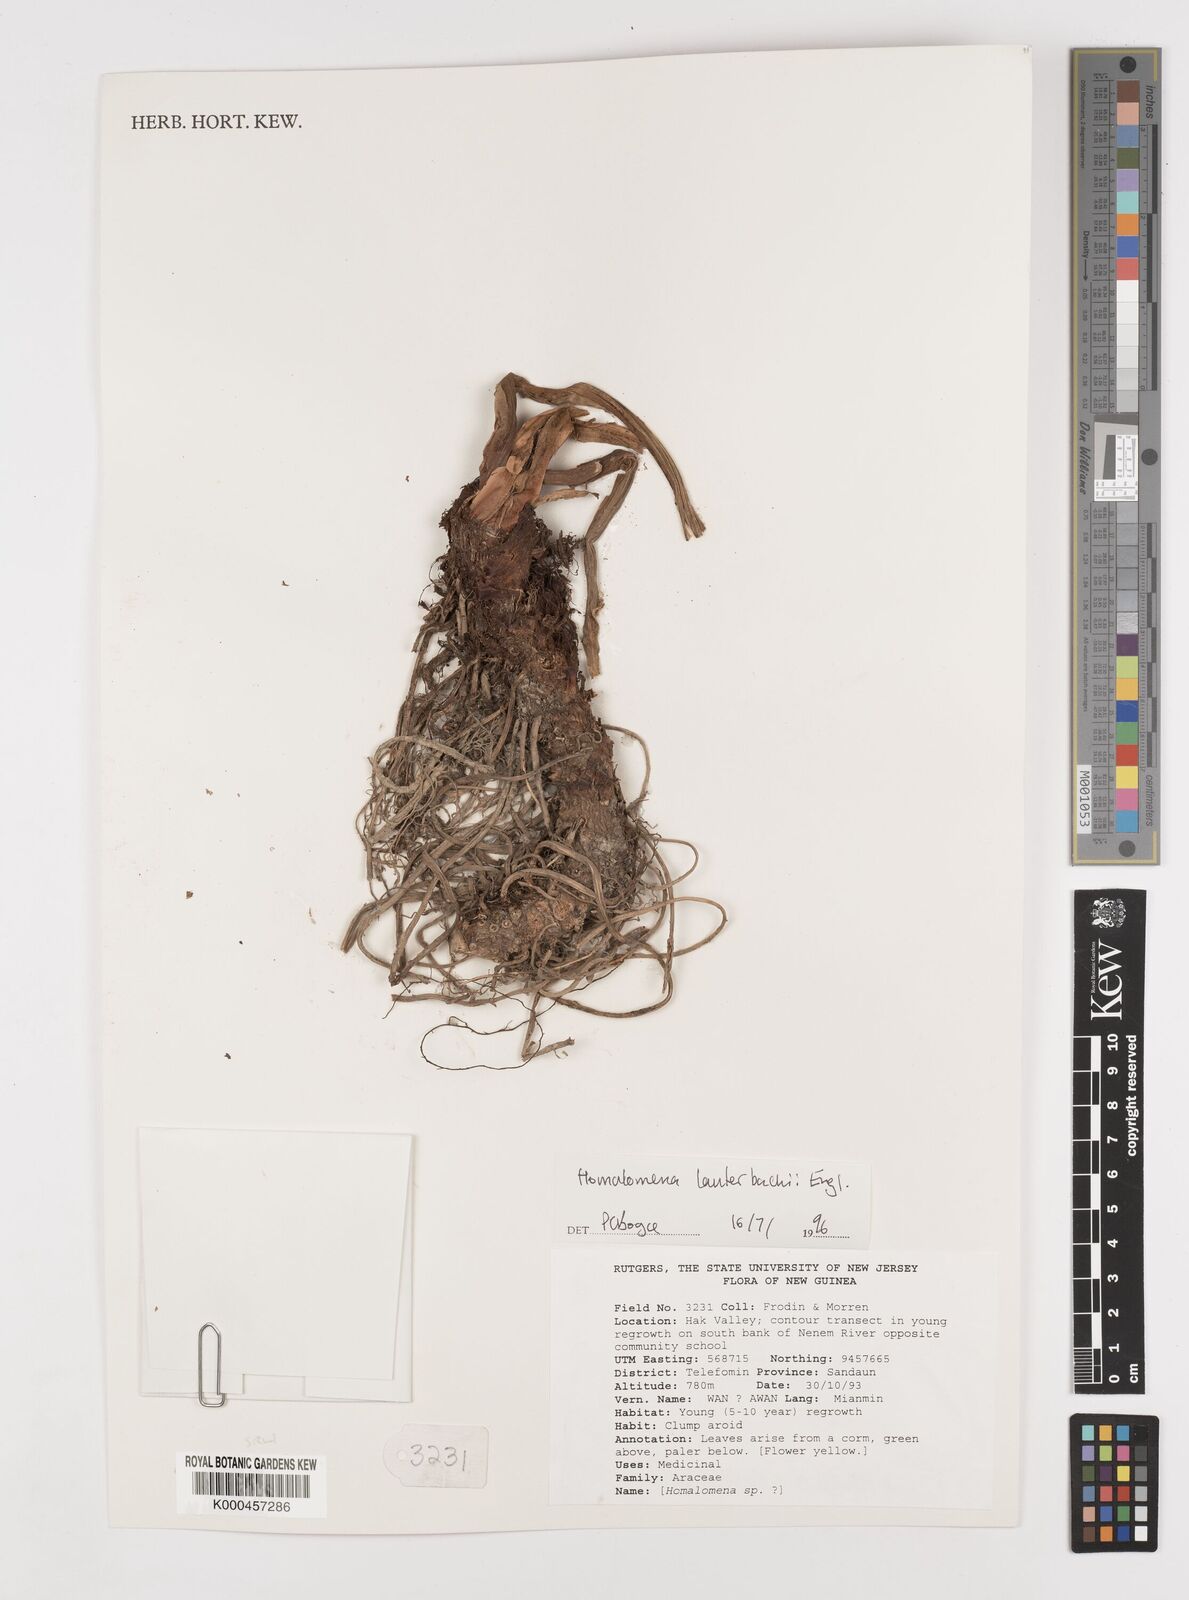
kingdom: Plantae
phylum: Tracheophyta
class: Liliopsida
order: Alismatales
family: Araceae
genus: Homalomena
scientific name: Homalomena lauterbachii
